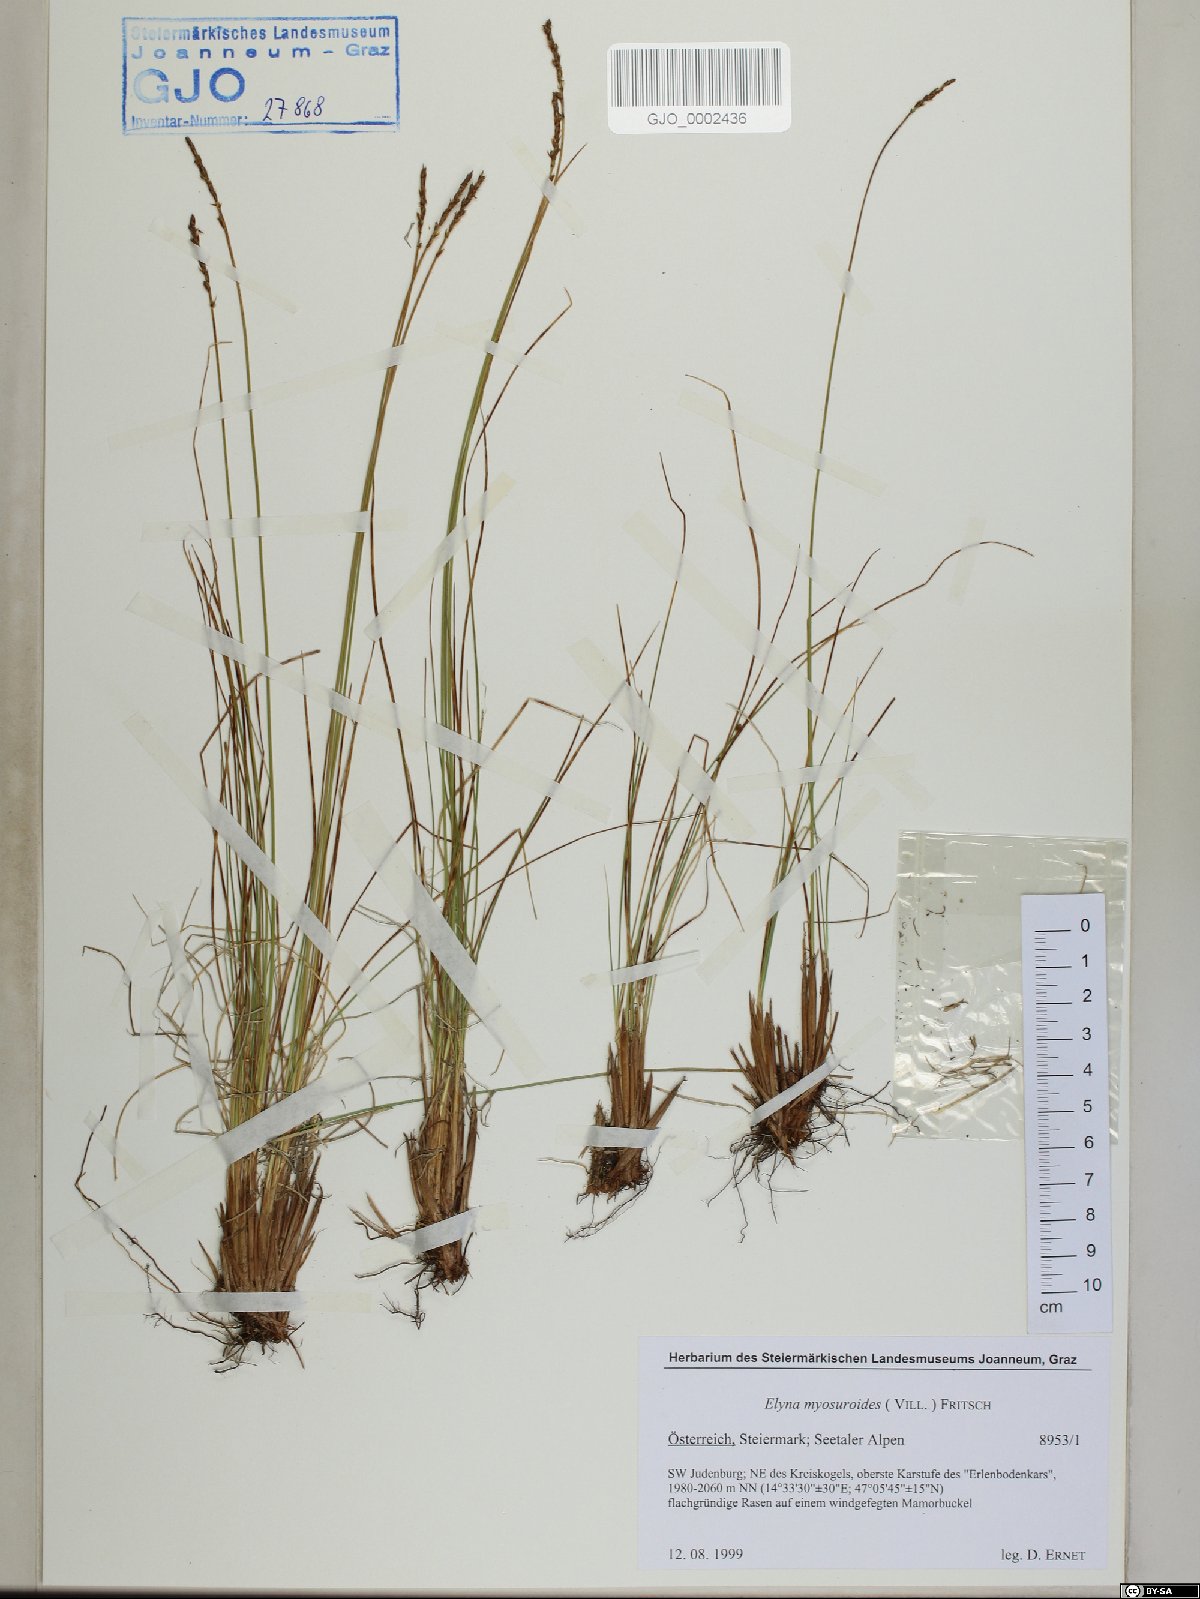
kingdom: Plantae
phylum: Tracheophyta
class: Liliopsida
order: Poales
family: Cyperaceae
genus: Carex
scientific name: Carex myosuroides
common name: Bellard's bog sedge
